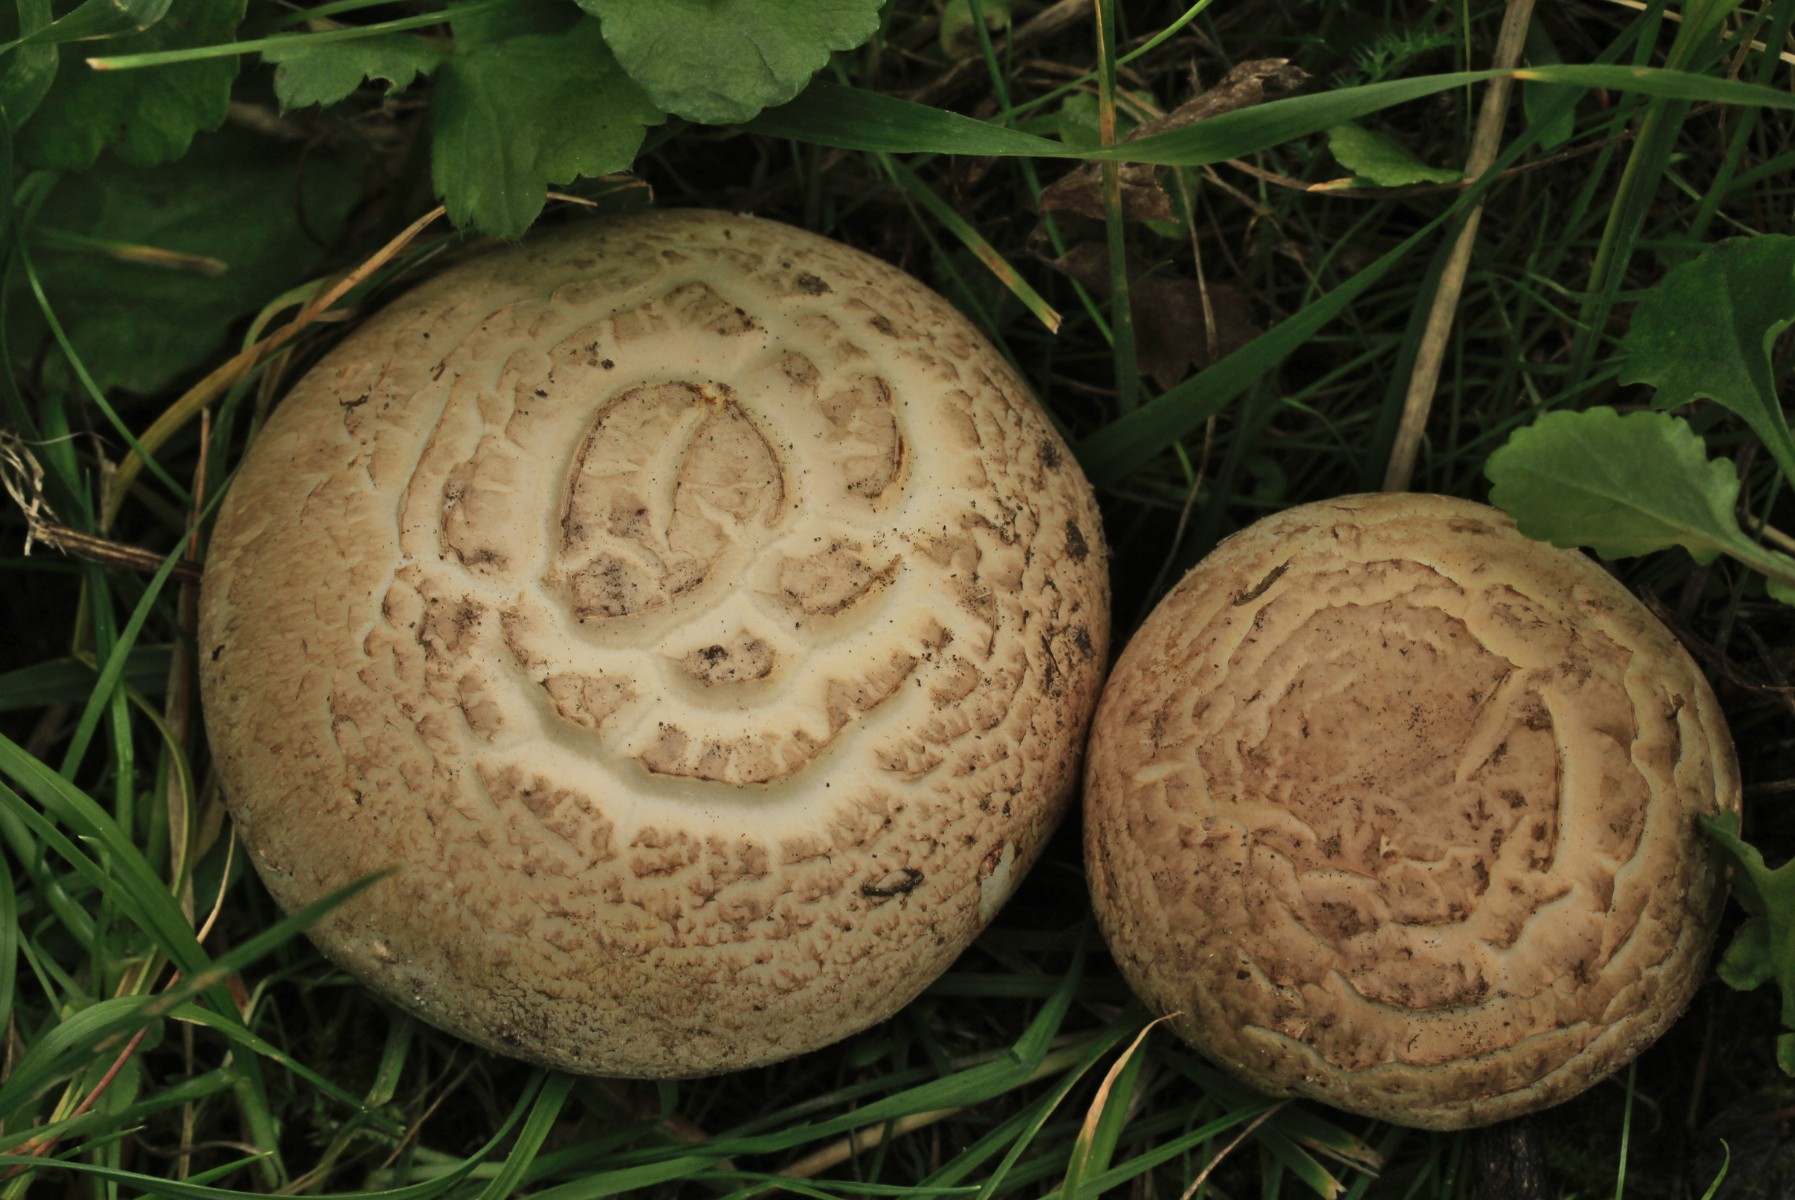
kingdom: Fungi
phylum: Basidiomycota
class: Agaricomycetes
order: Agaricales
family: Agaricaceae
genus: Agaricus
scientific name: Agaricus litoralis
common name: kyst-champignon
